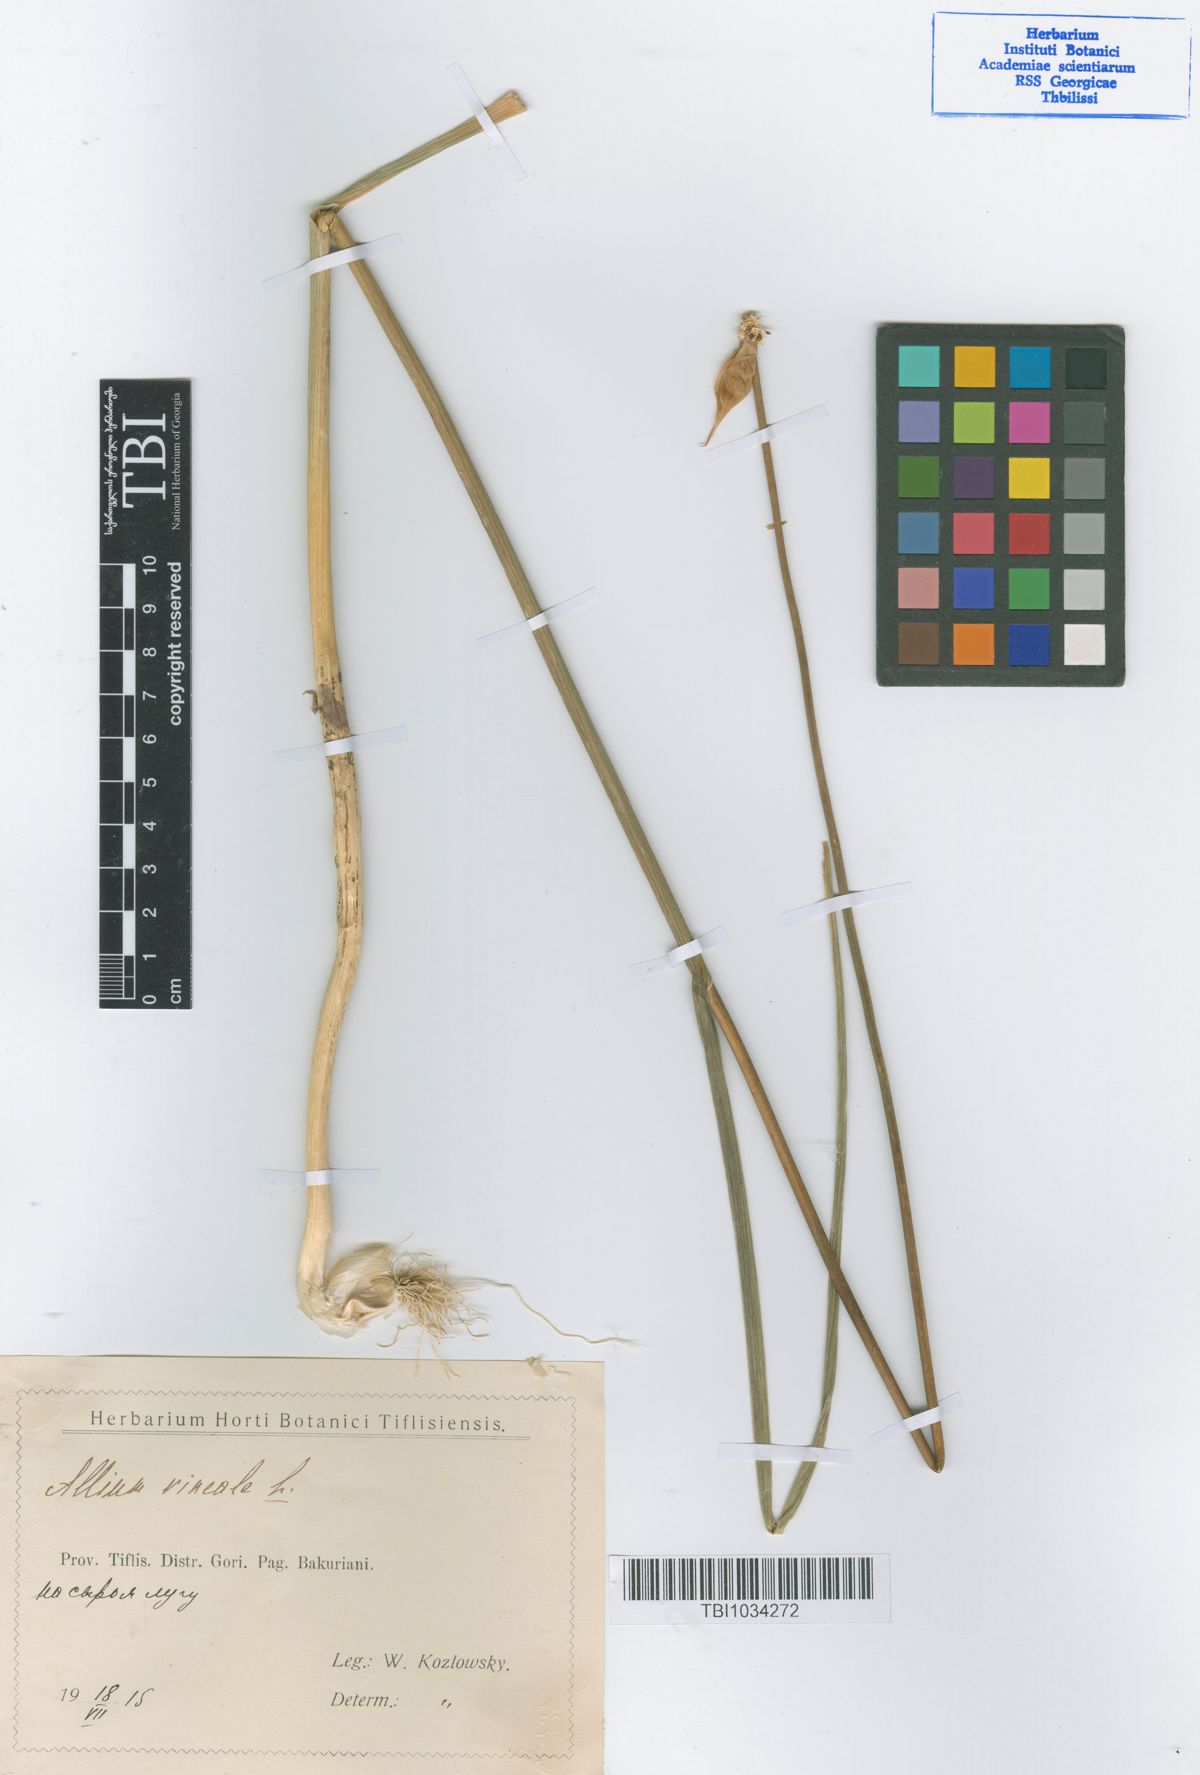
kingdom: Plantae
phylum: Tracheophyta
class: Liliopsida
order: Asparagales
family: Amaryllidaceae
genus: Allium
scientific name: Allium vineale
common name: Crow garlic
